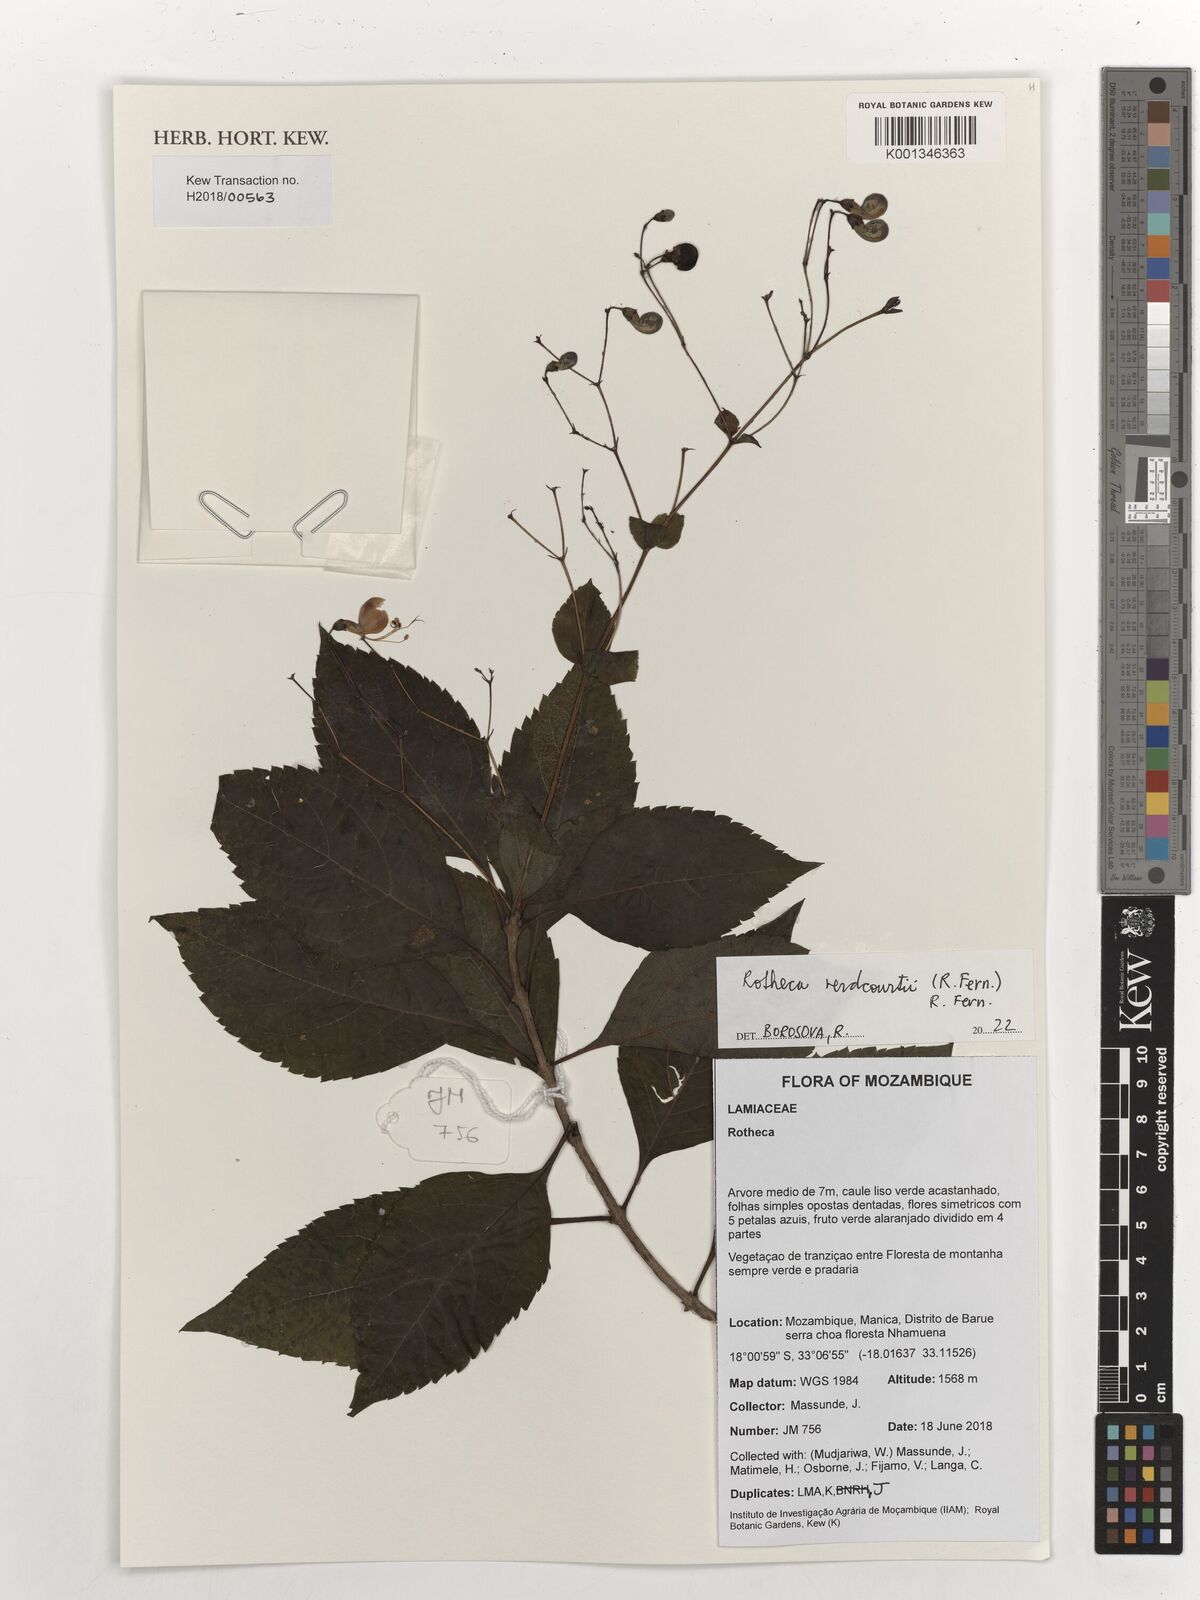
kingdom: Plantae
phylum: Tracheophyta
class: Magnoliopsida
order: Lamiales
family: Lamiaceae
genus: Rotheca
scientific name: Rotheca verdcourtii
